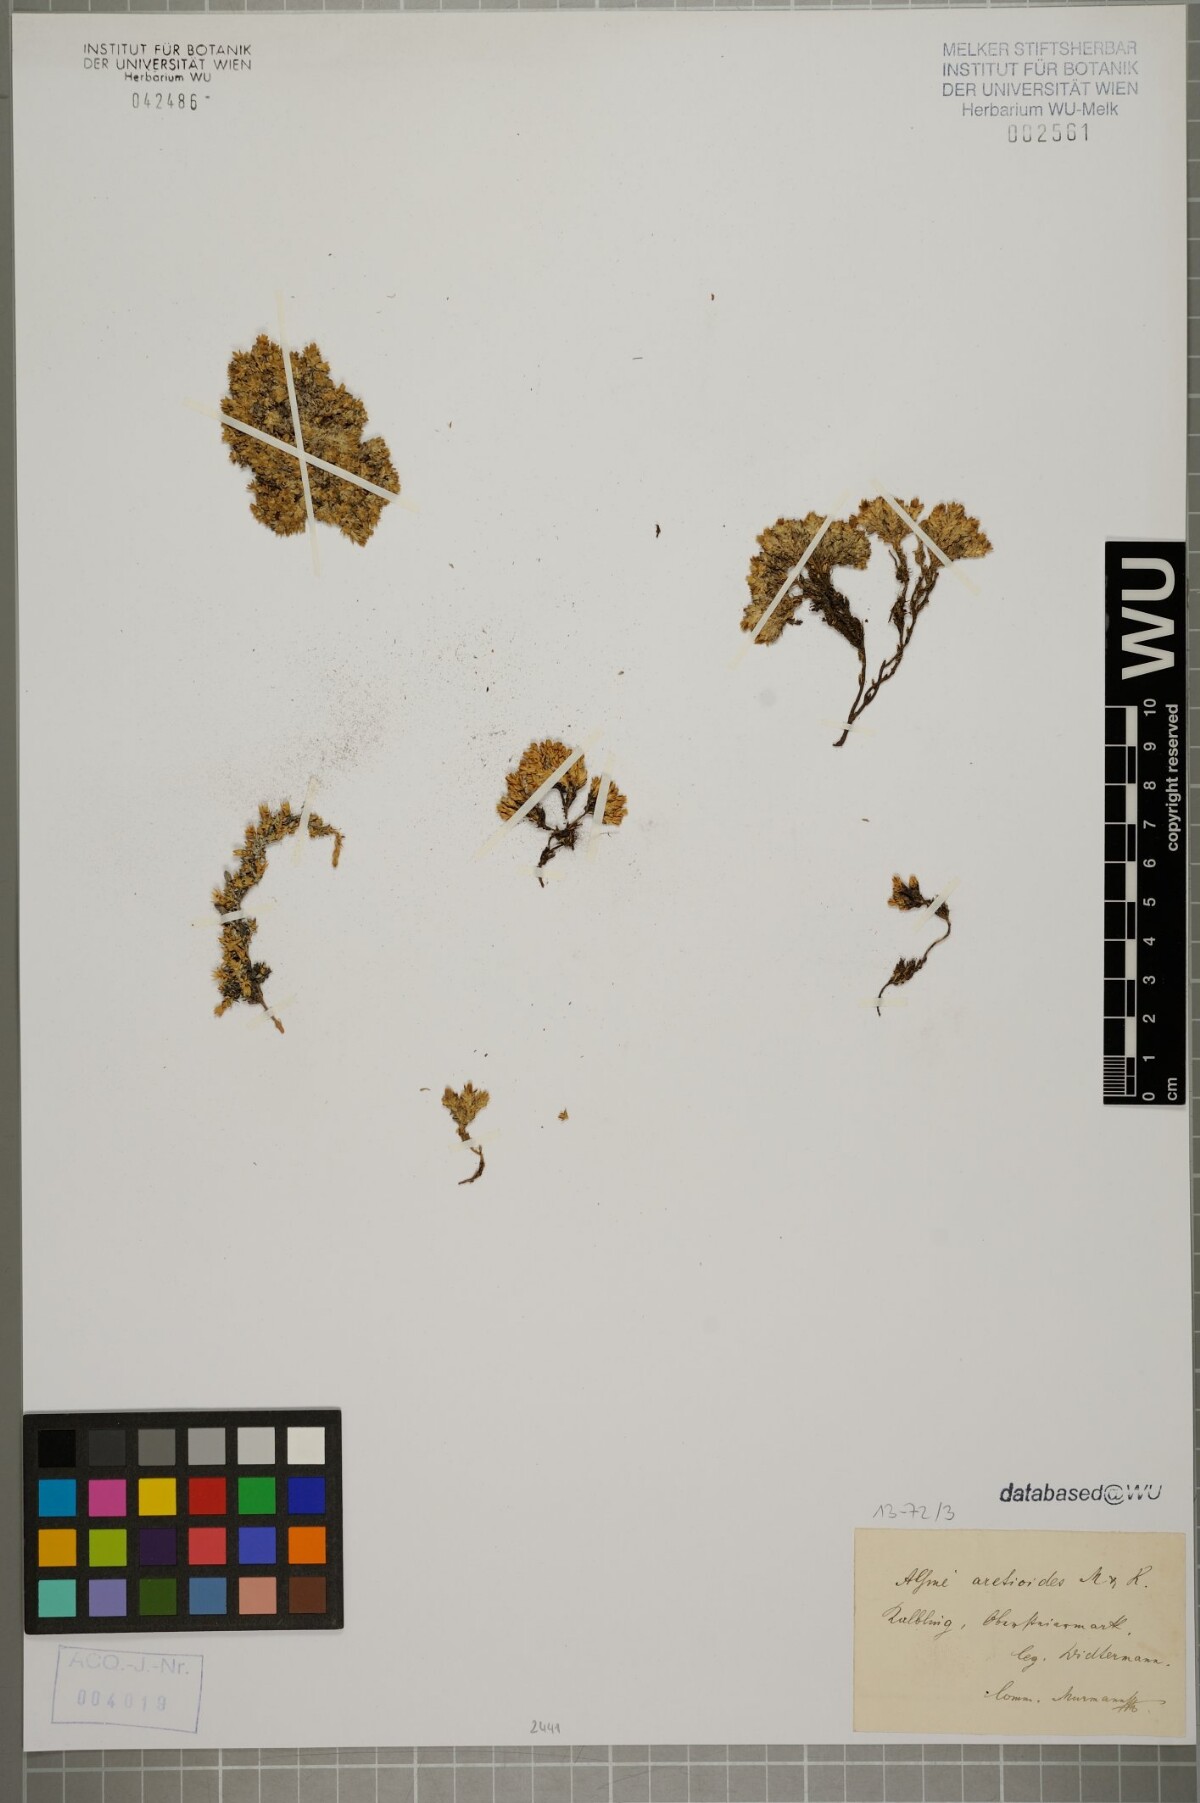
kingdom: Plantae
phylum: Tracheophyta
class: Magnoliopsida
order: Caryophyllales
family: Caryophyllaceae
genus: Facchinia
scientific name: Facchinia cherlerioides
